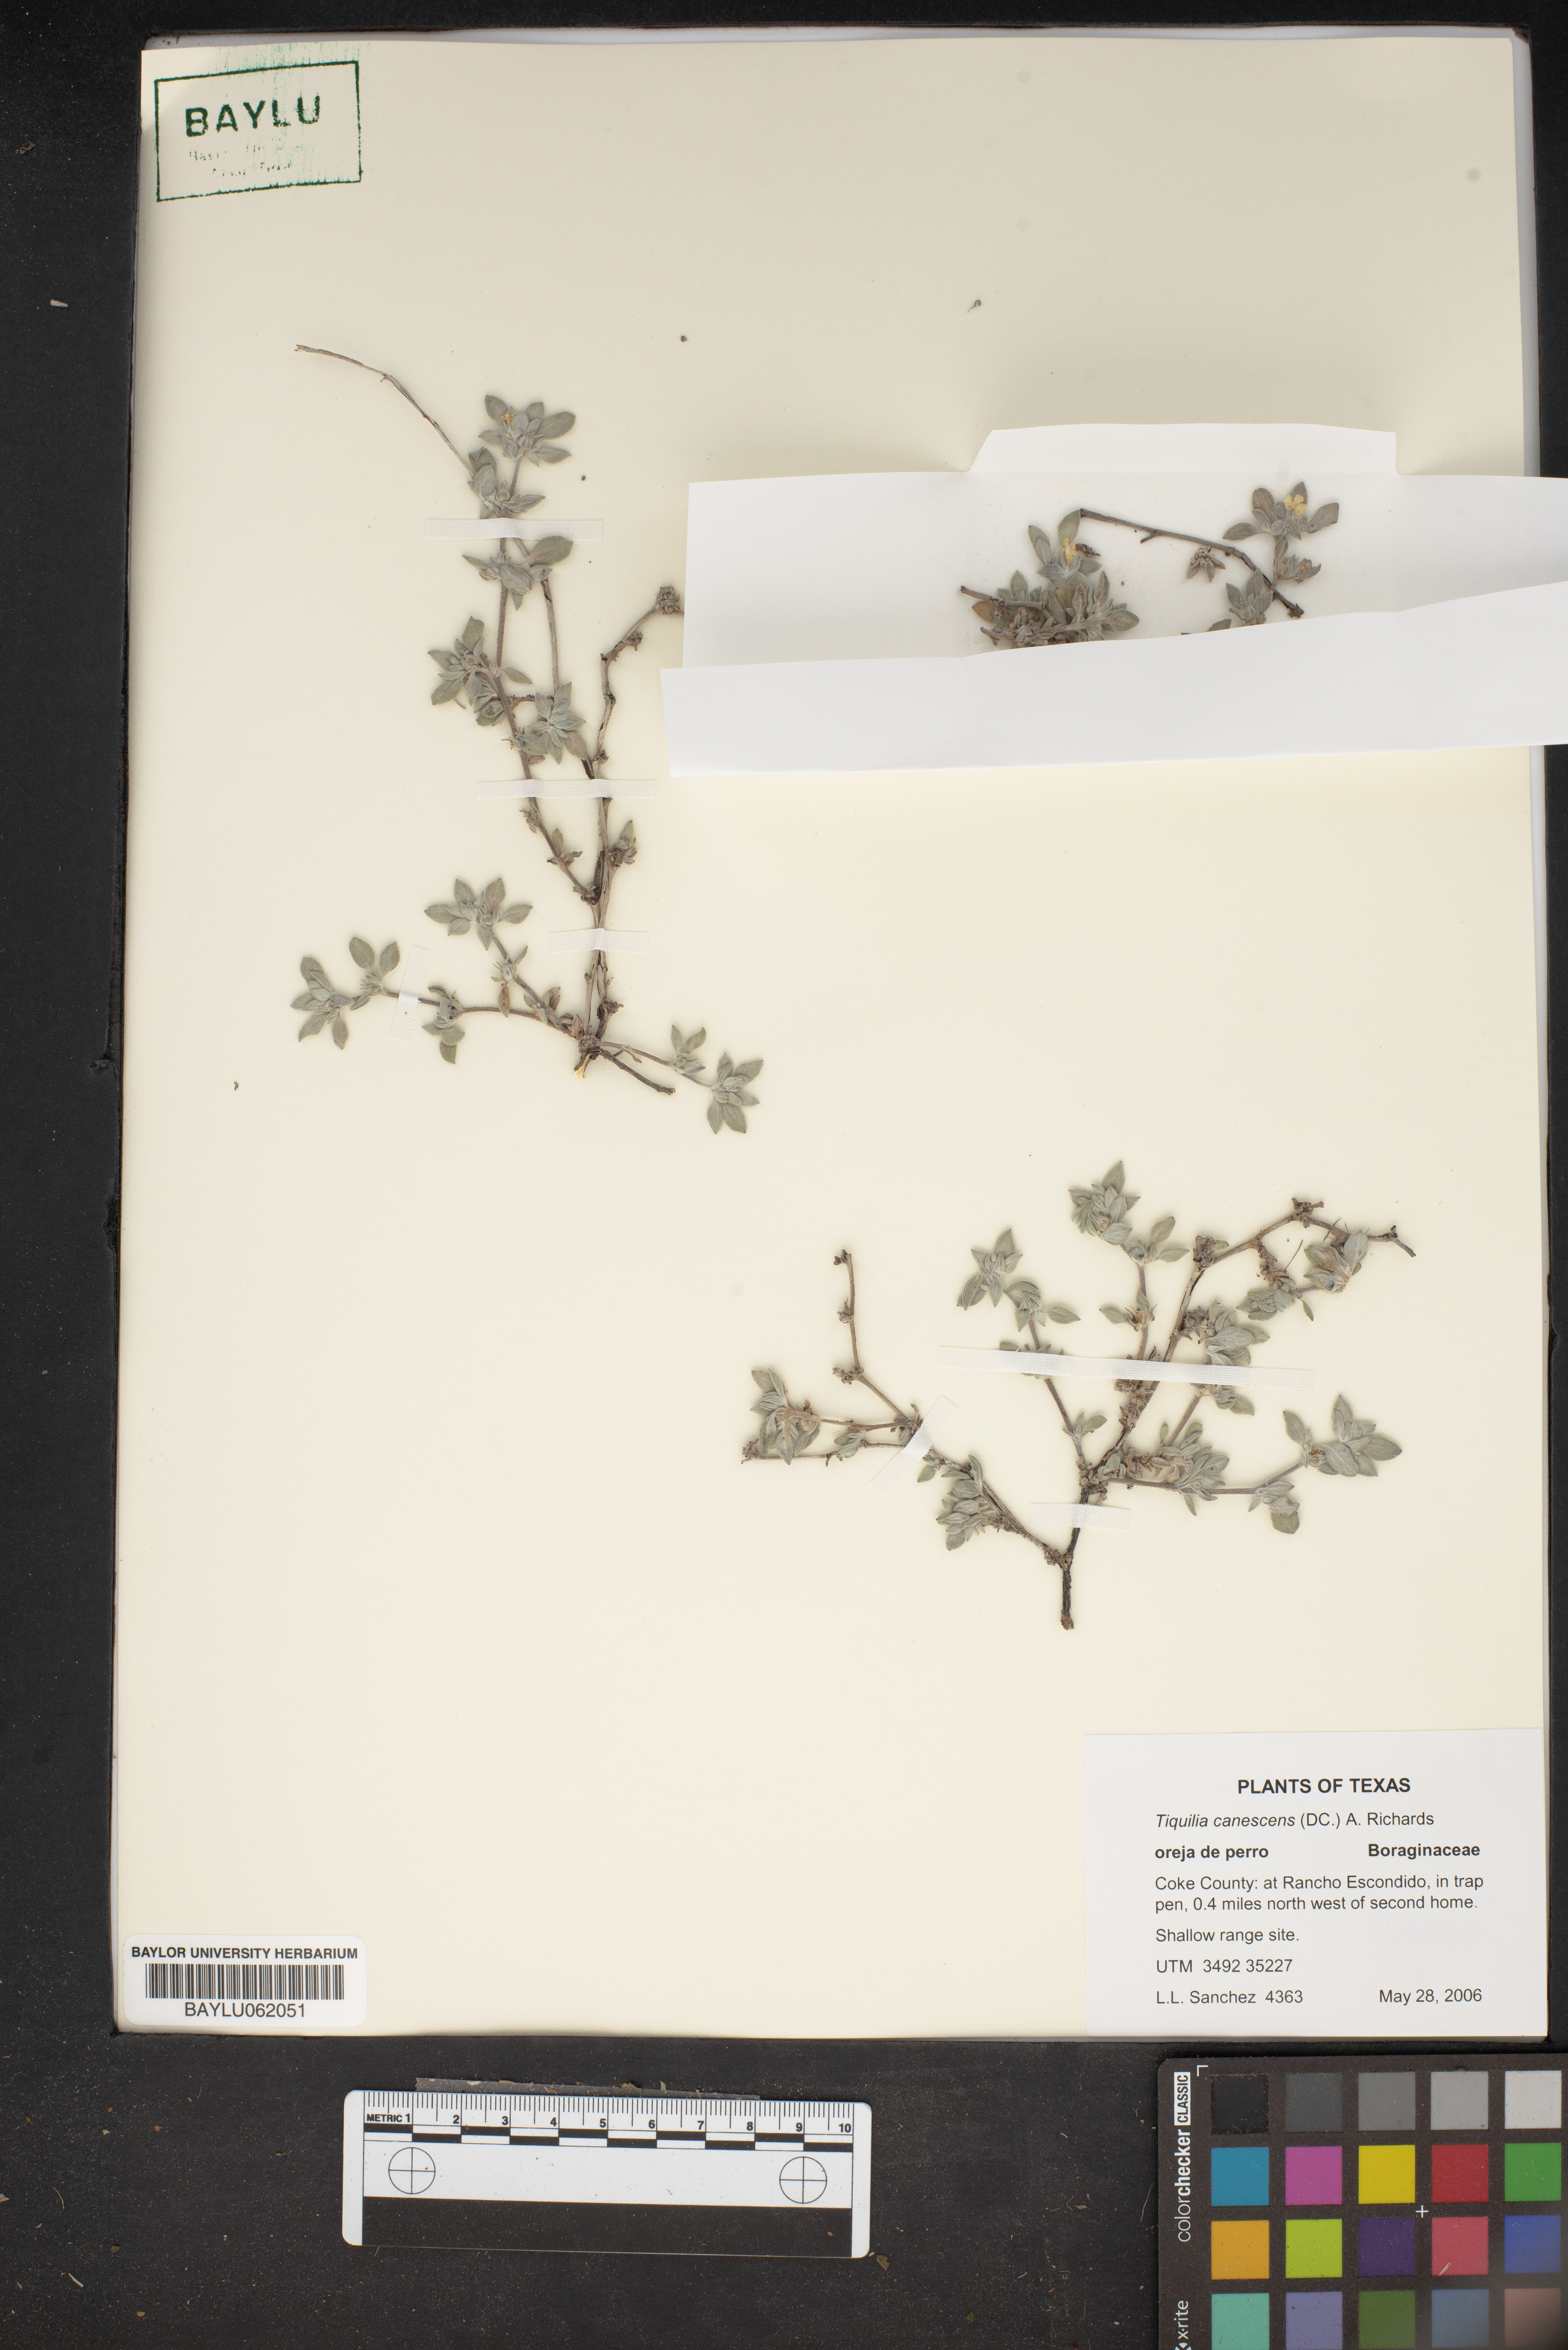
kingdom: Plantae
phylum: Tracheophyta
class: Magnoliopsida
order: Boraginales
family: Ehretiaceae
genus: Tiquilia
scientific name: Tiquilia canescens
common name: Hairy tiquilia
